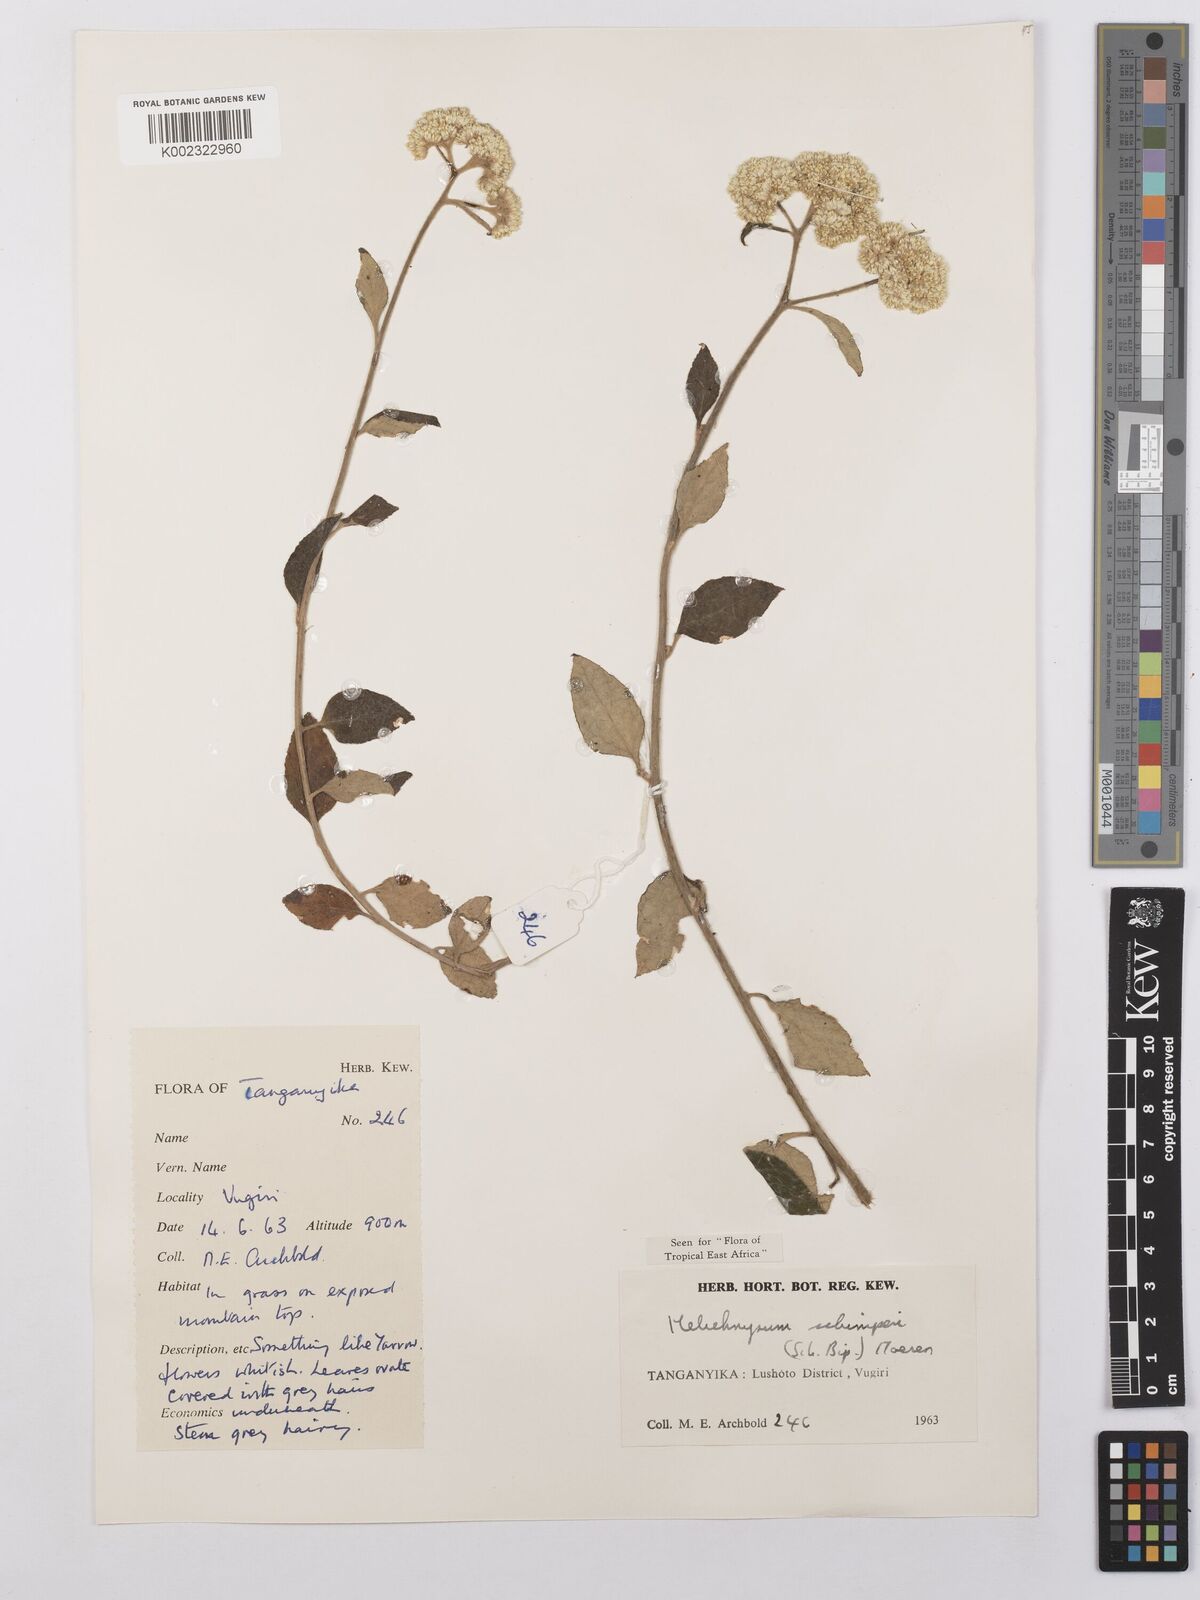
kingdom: Plantae
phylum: Tracheophyta
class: Magnoliopsida
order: Asterales
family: Asteraceae
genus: Helichrysum
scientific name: Helichrysum schimperi
